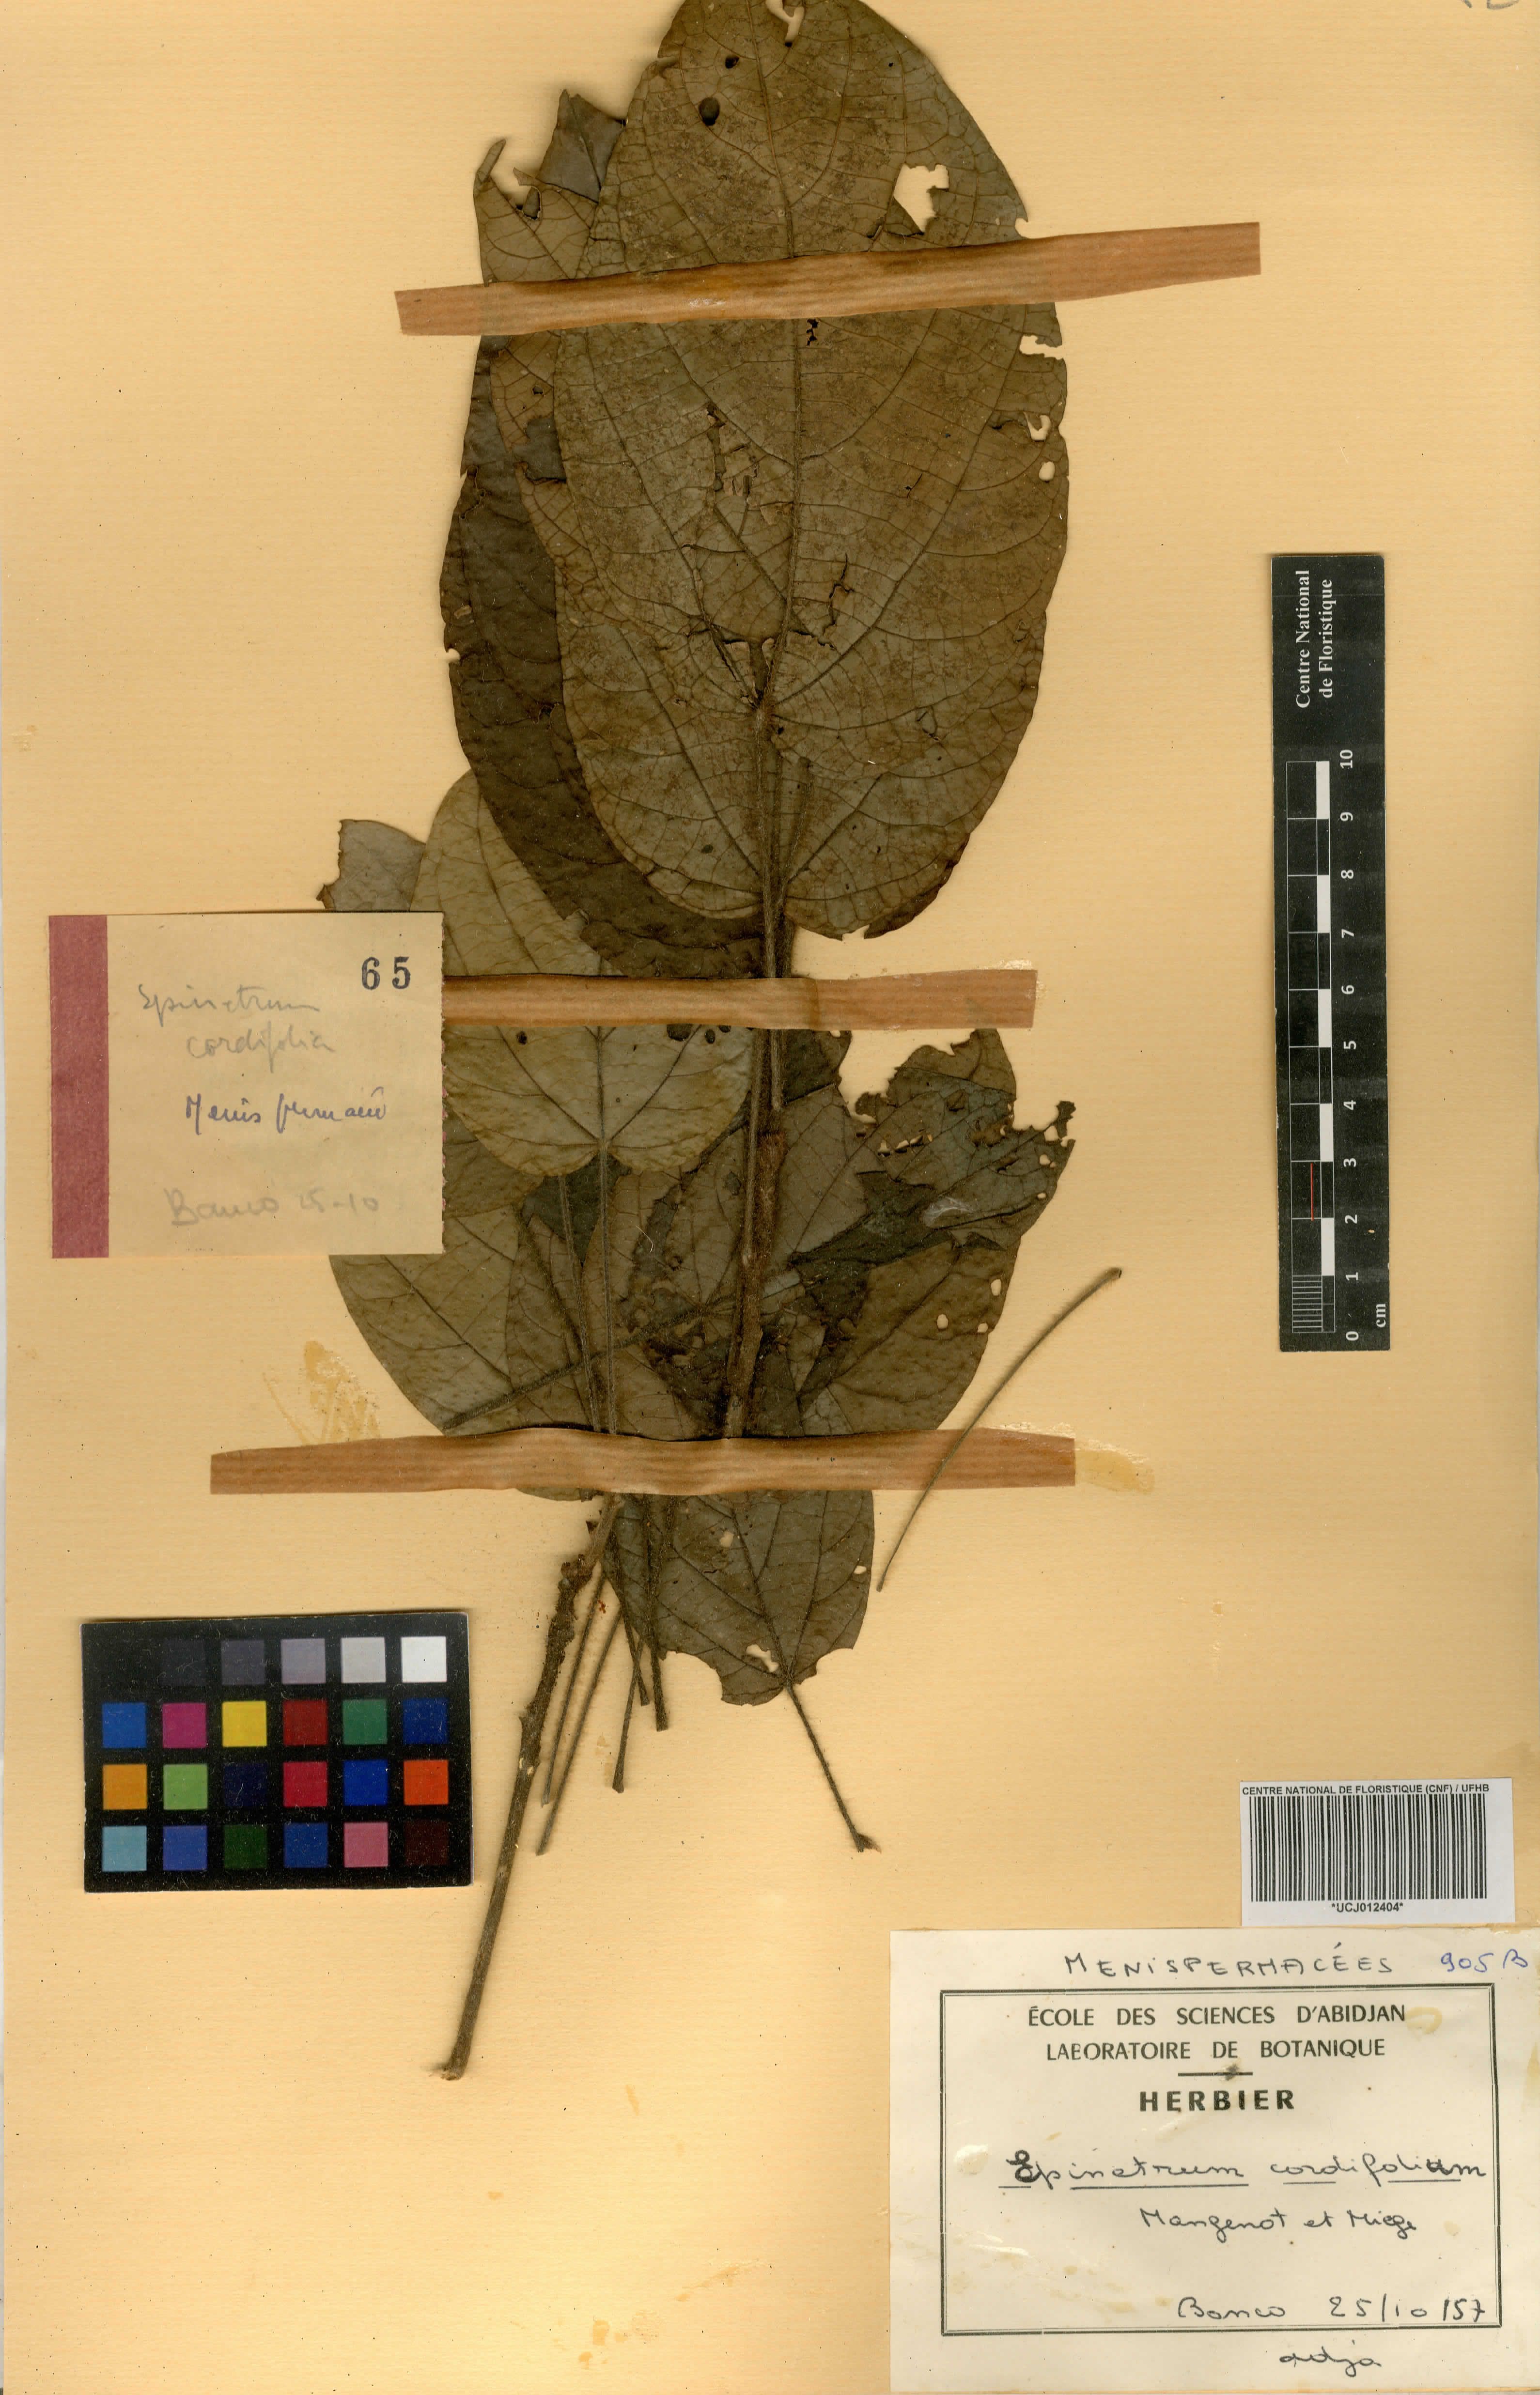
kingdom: Plantae
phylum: Tracheophyta
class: Magnoliopsida
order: Ranunculales
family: Menispermaceae
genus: Albertisia
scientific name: Albertisia cordifolia
